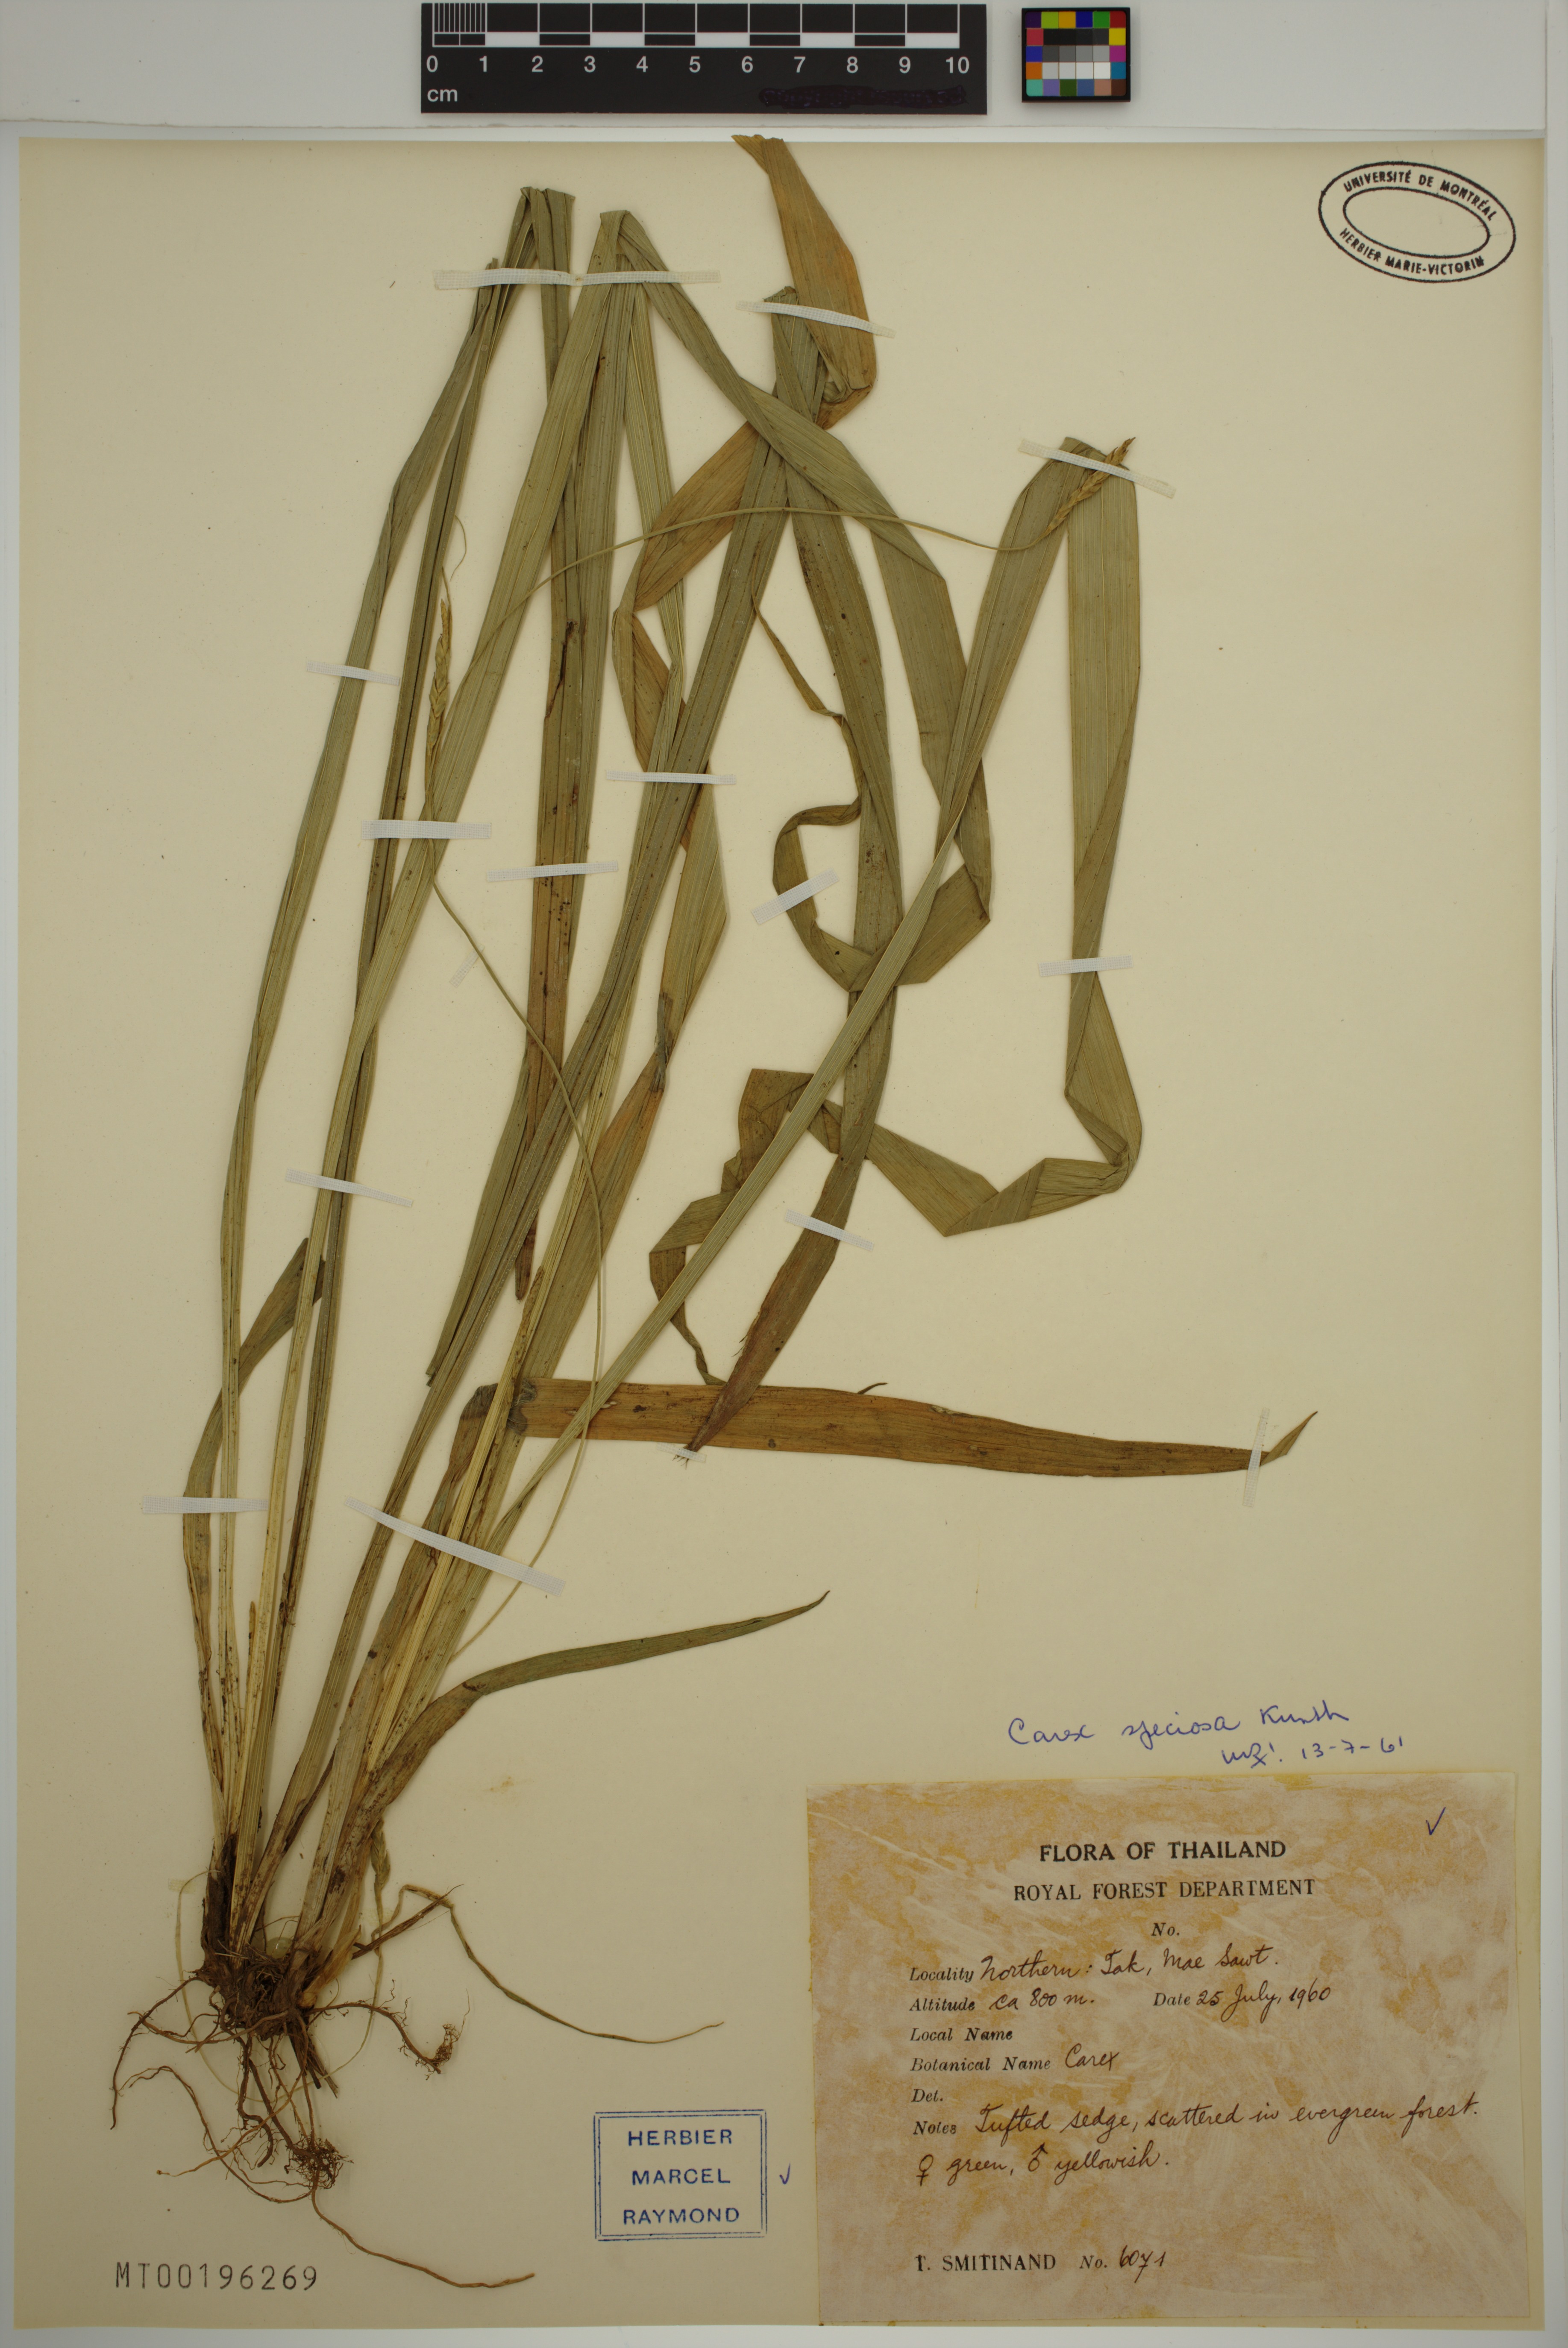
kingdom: Plantae
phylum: Tracheophyta
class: Liliopsida
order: Poales
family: Cyperaceae
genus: Carex
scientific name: Carex speciosa
